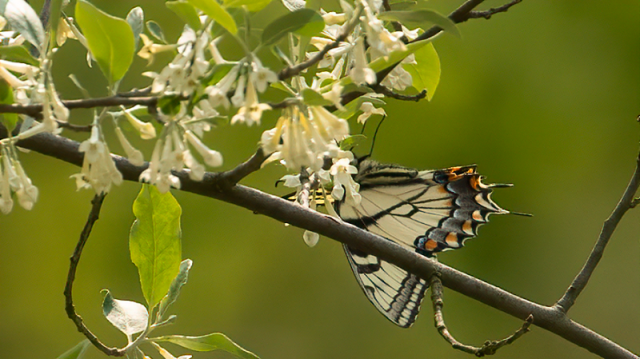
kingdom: Animalia
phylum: Arthropoda
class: Insecta
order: Lepidoptera
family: Papilionidae
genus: Pterourus
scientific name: Pterourus canadensis
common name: Canadian Tiger Swallowtail
